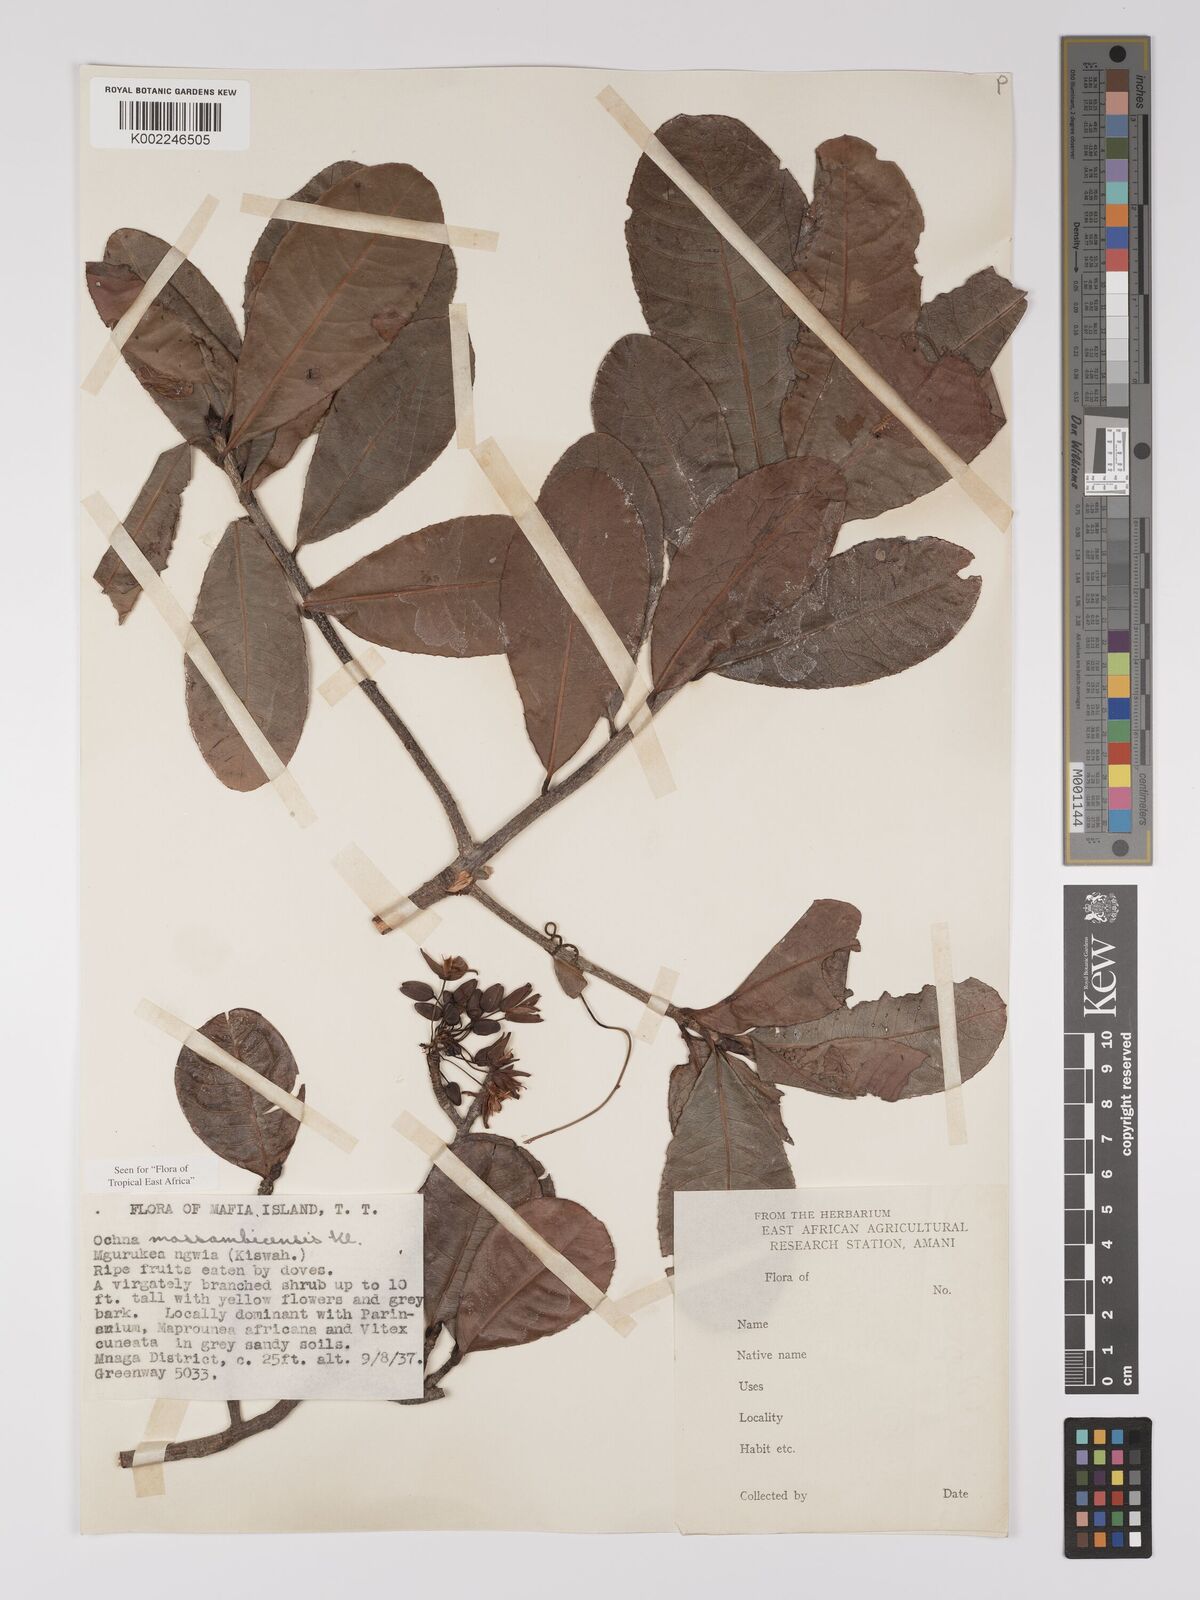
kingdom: Plantae
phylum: Tracheophyta
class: Magnoliopsida
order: Malpighiales
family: Ochnaceae
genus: Ochna
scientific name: Ochna atropurpurea
